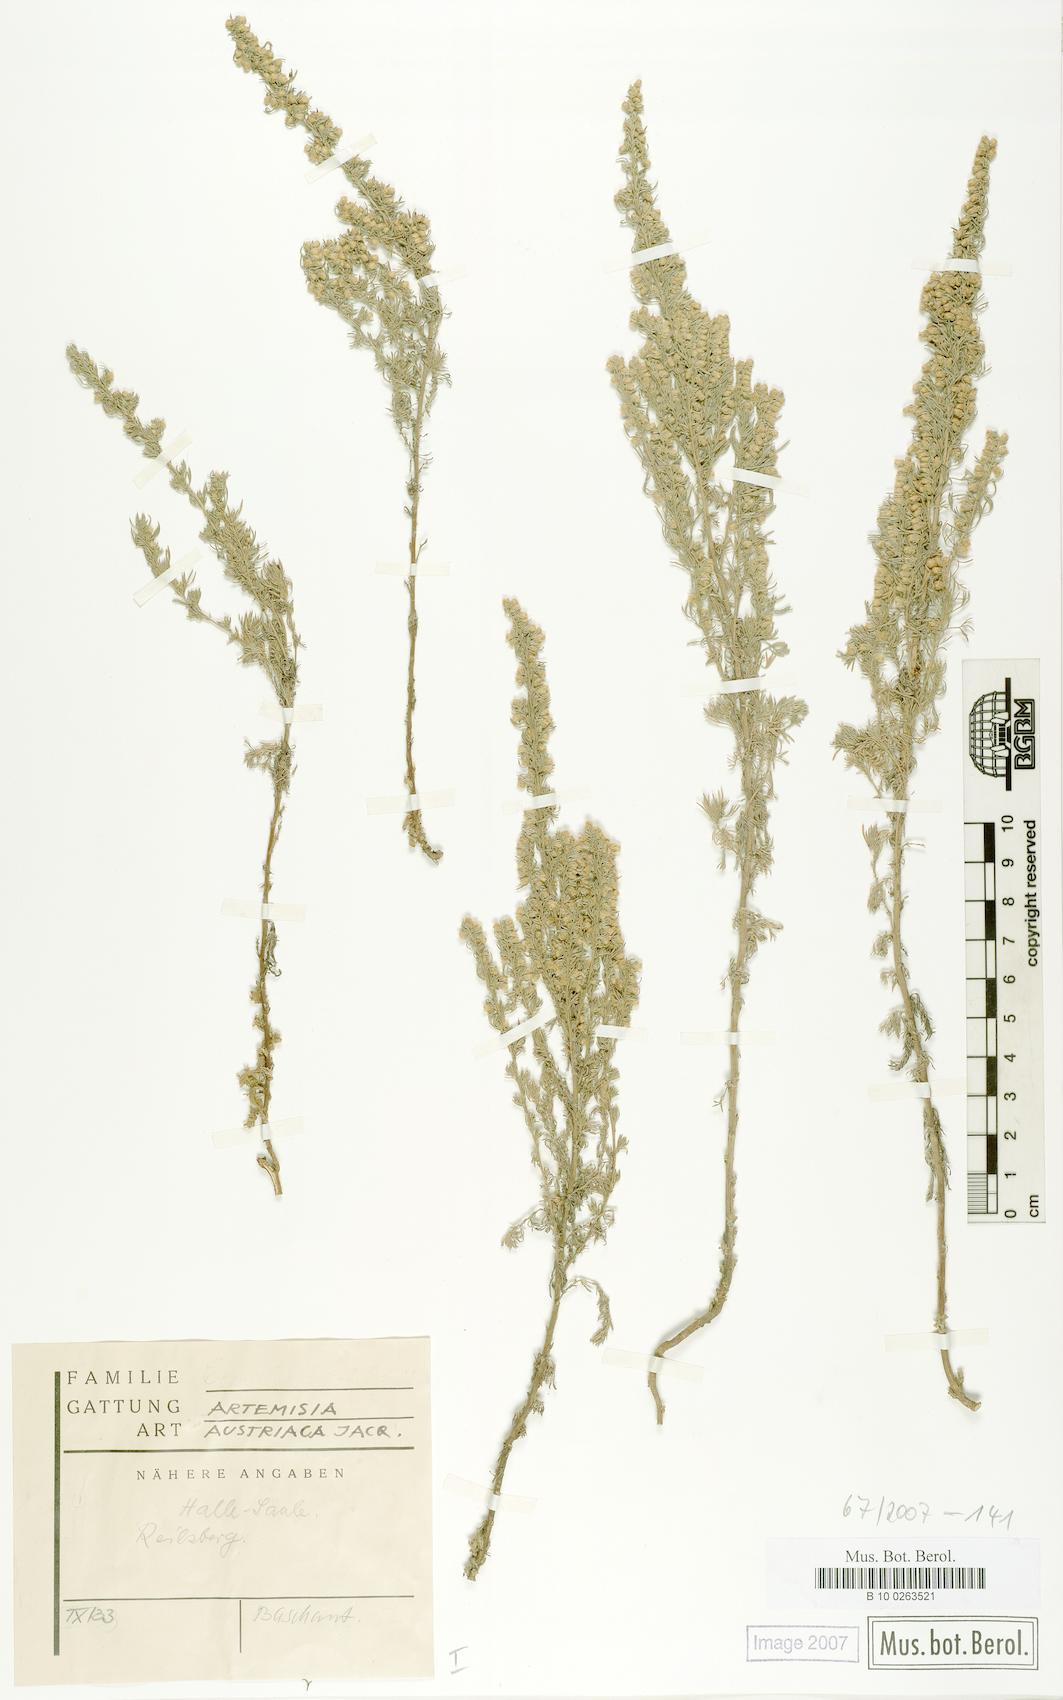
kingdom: Plantae
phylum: Tracheophyta
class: Magnoliopsida
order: Asterales
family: Asteraceae
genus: Artemisia
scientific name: Artemisia austriaca
